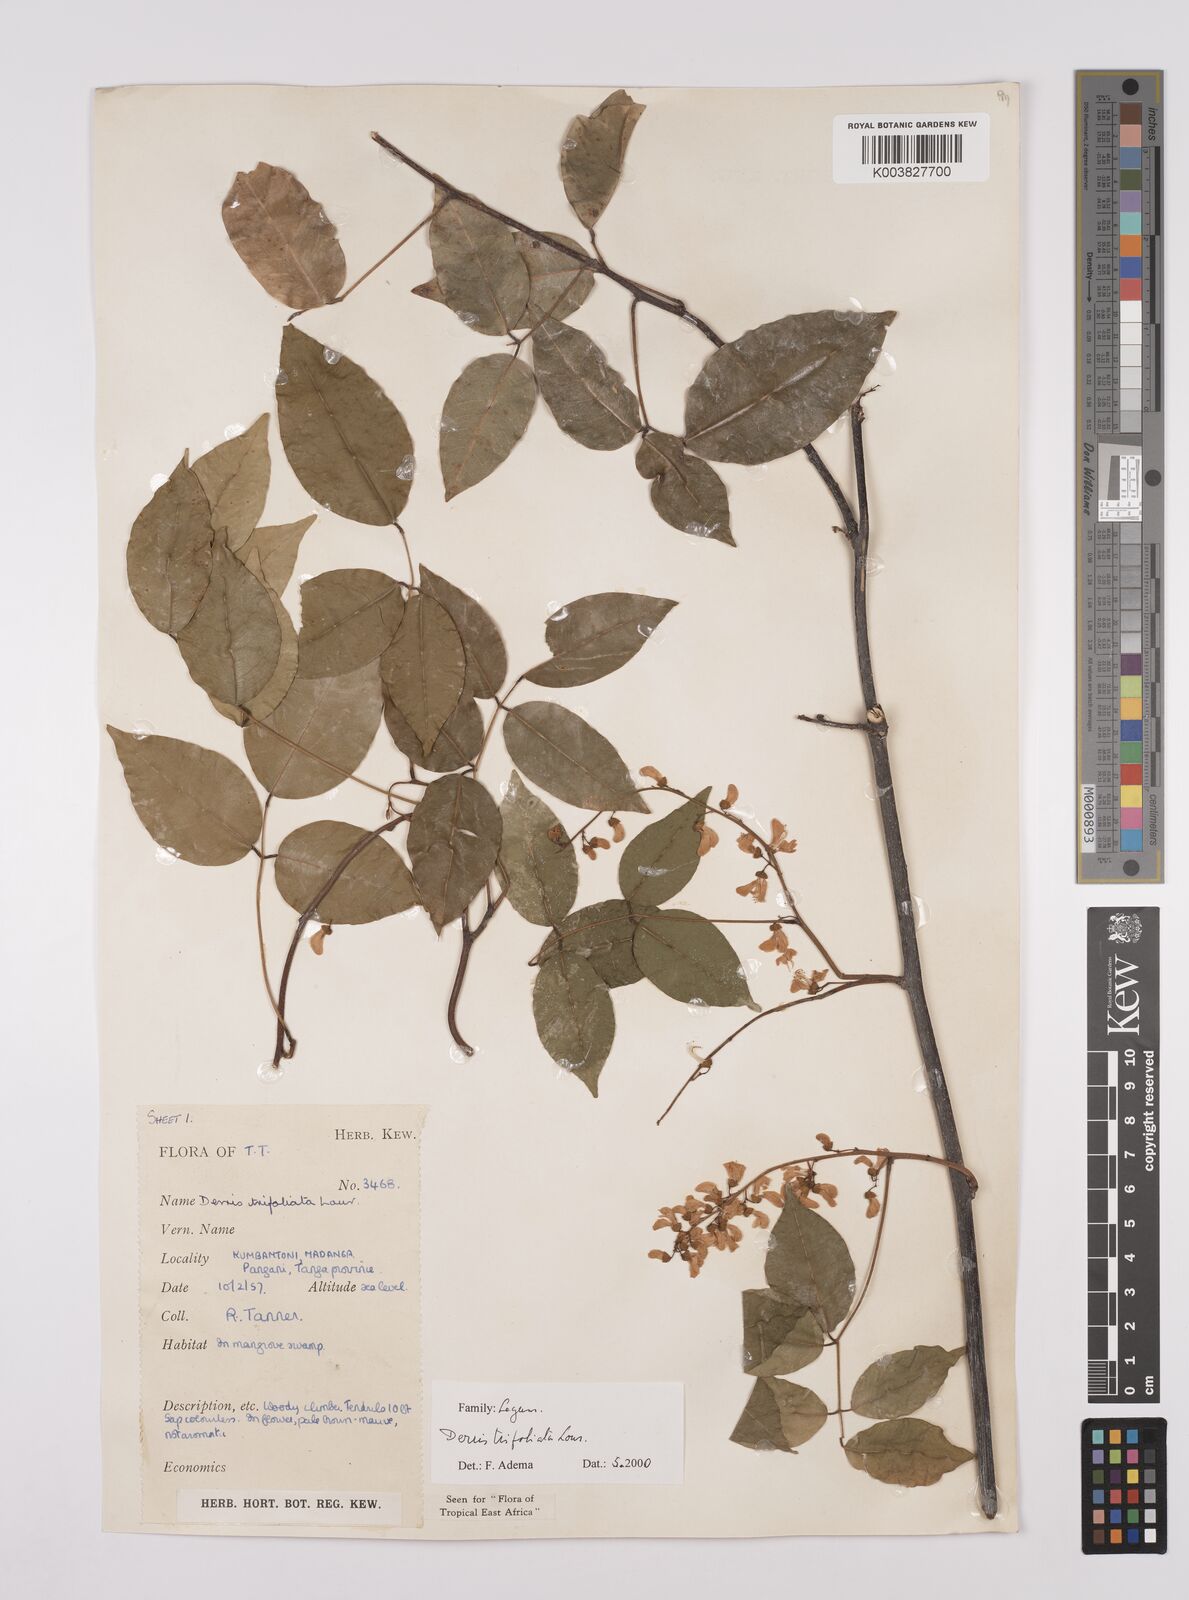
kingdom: Plantae
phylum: Tracheophyta
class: Magnoliopsida
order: Fabales
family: Fabaceae
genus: Derris
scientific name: Derris trifoliata
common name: Three-leaf derris
